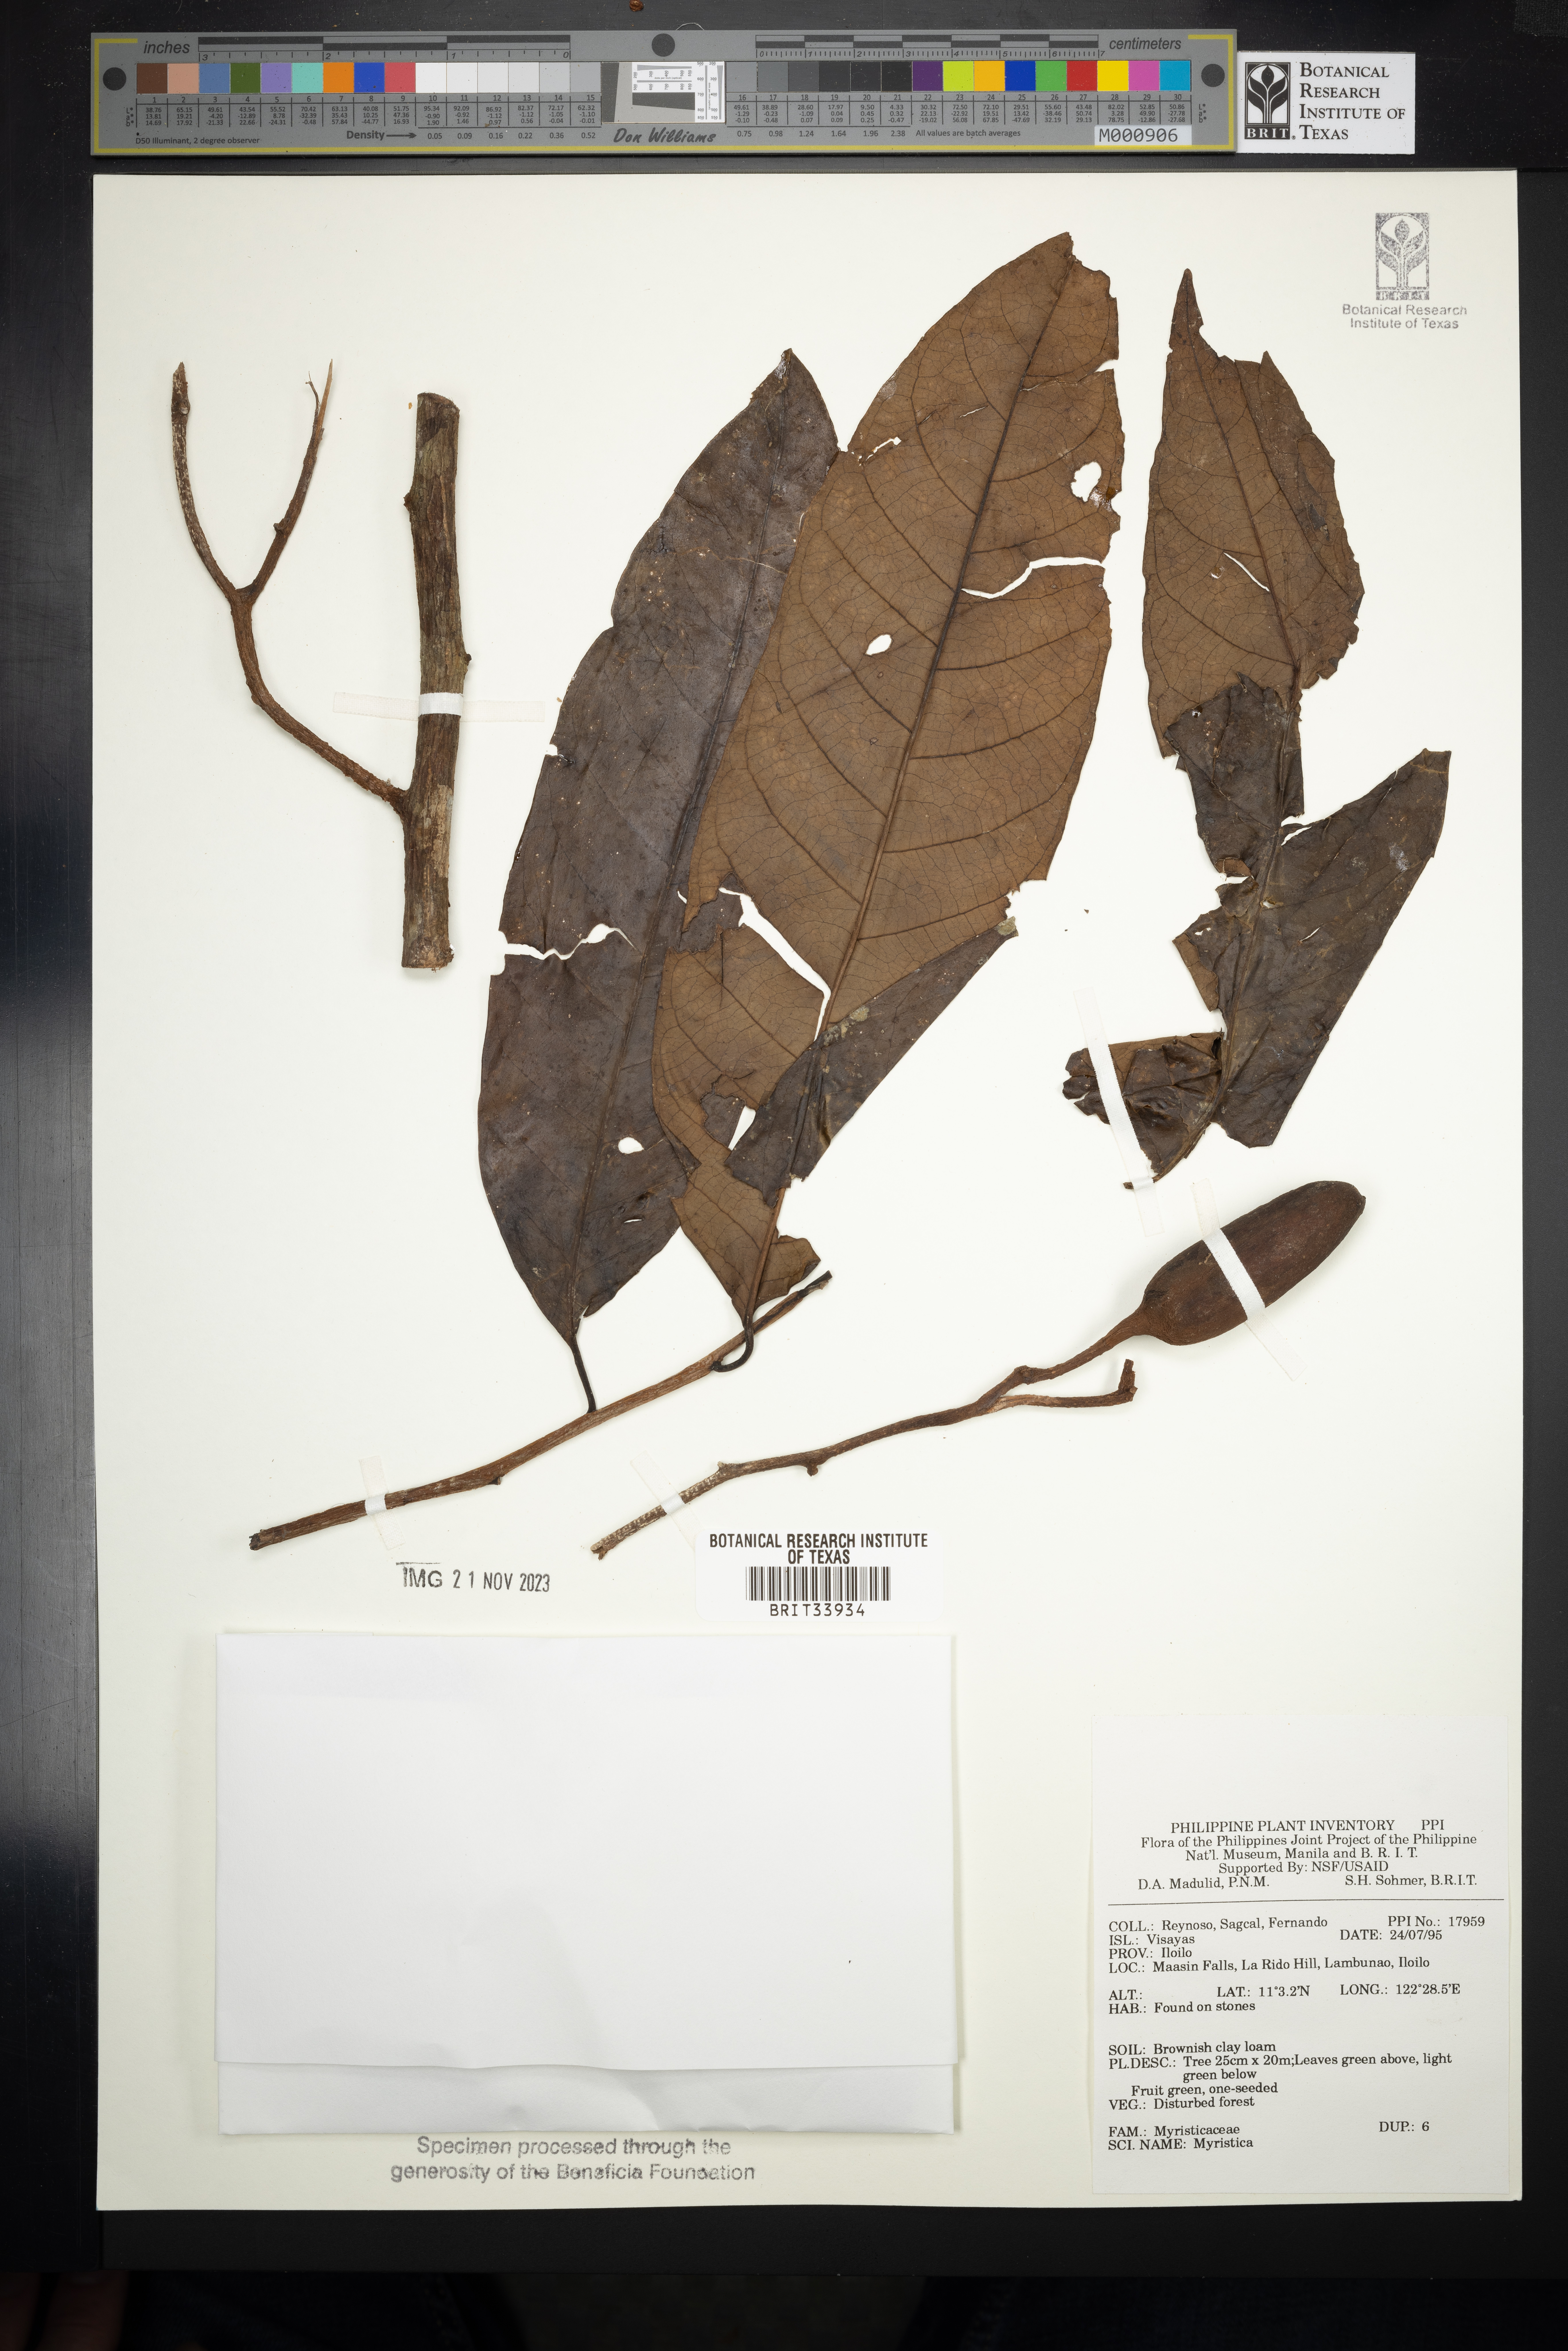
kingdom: Plantae
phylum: Tracheophyta
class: Magnoliopsida
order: Magnoliales
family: Myristicaceae
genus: Myristica
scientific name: Myristica
